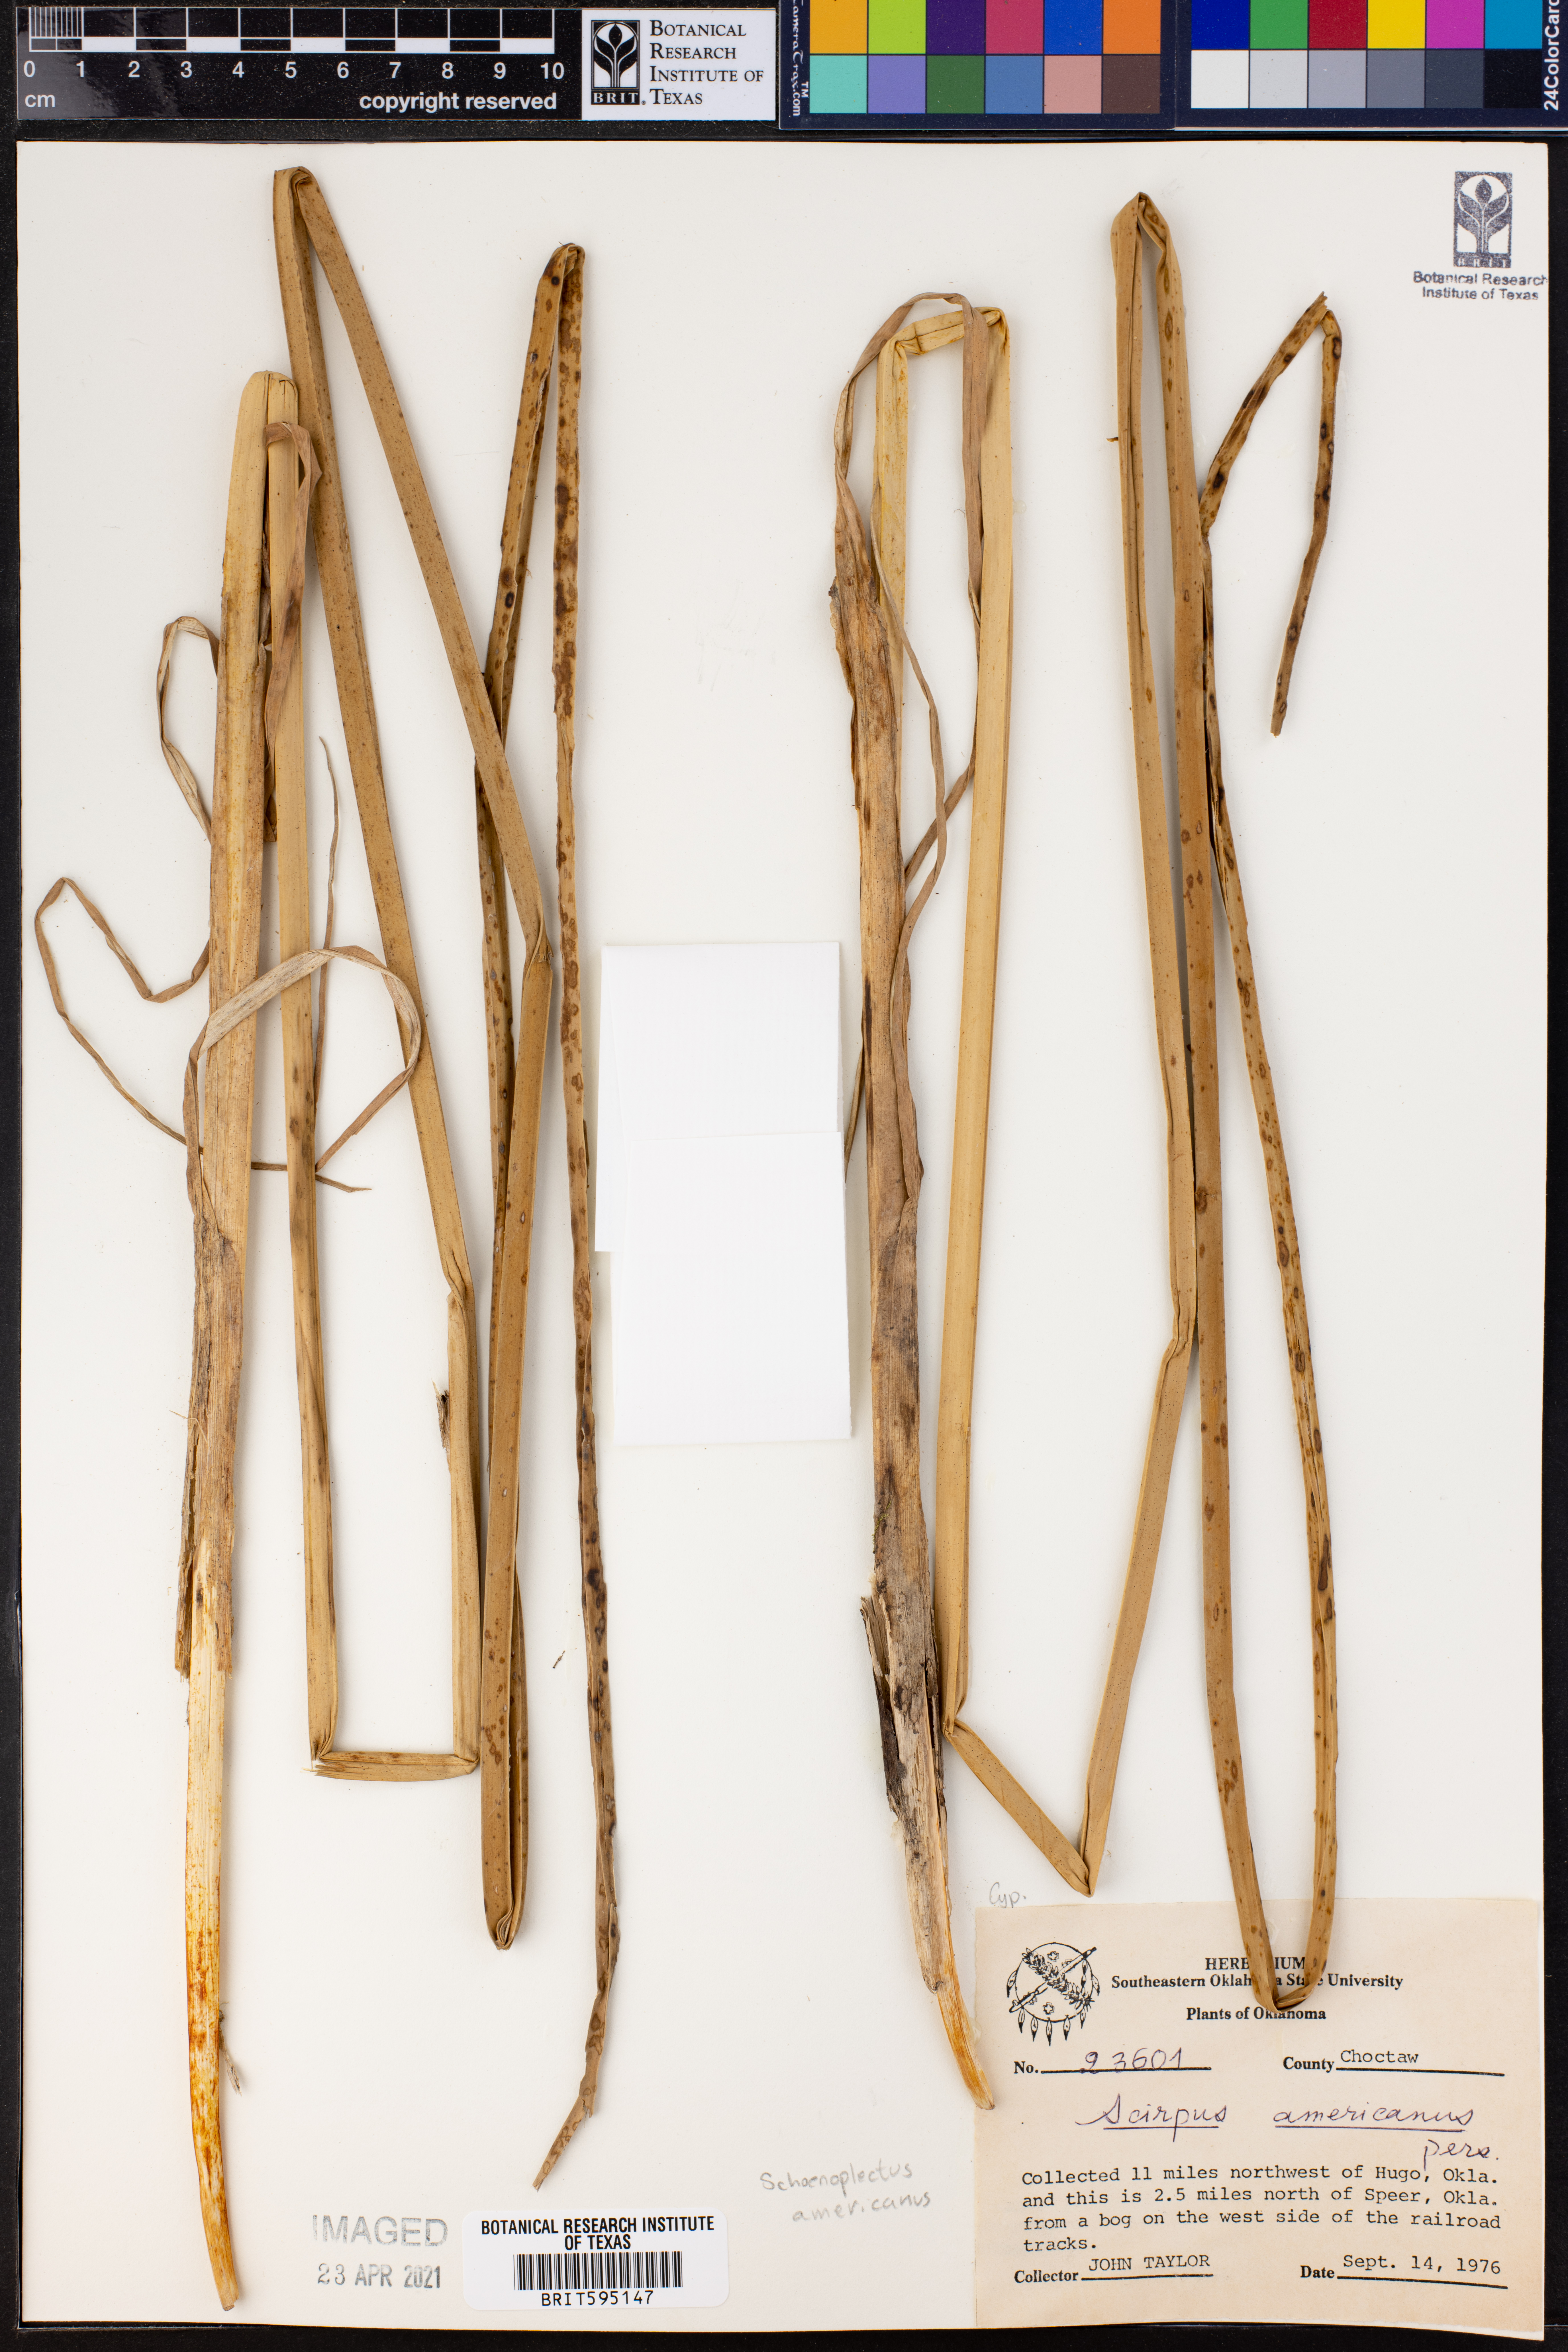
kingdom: Plantae
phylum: Tracheophyta
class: Liliopsida
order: Poales
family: Cyperaceae
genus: Schoenoplectus
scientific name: Schoenoplectus americanus
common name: American three-square bulrush
